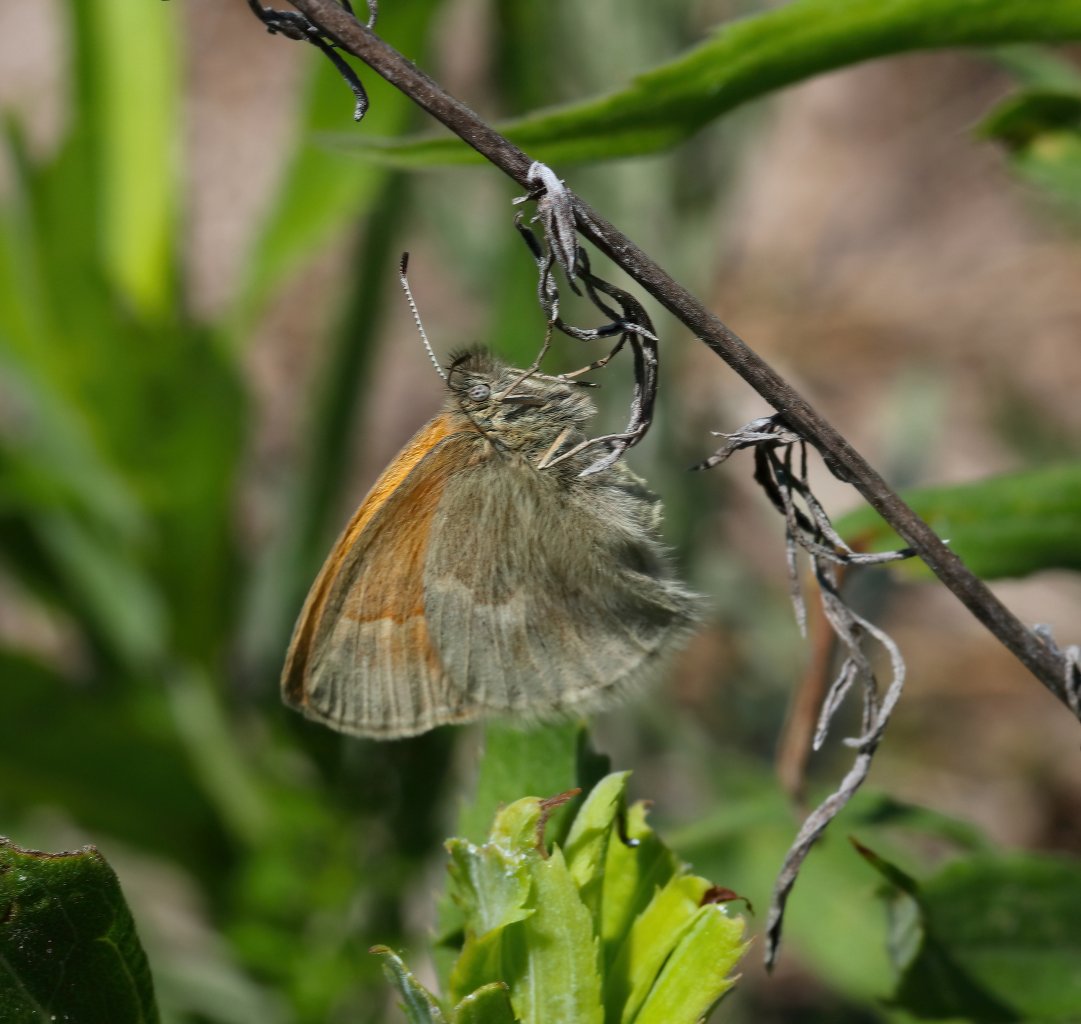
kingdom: Animalia
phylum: Arthropoda
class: Insecta
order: Lepidoptera
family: Nymphalidae
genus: Coenonympha
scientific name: Coenonympha tullia
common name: Large Heath
